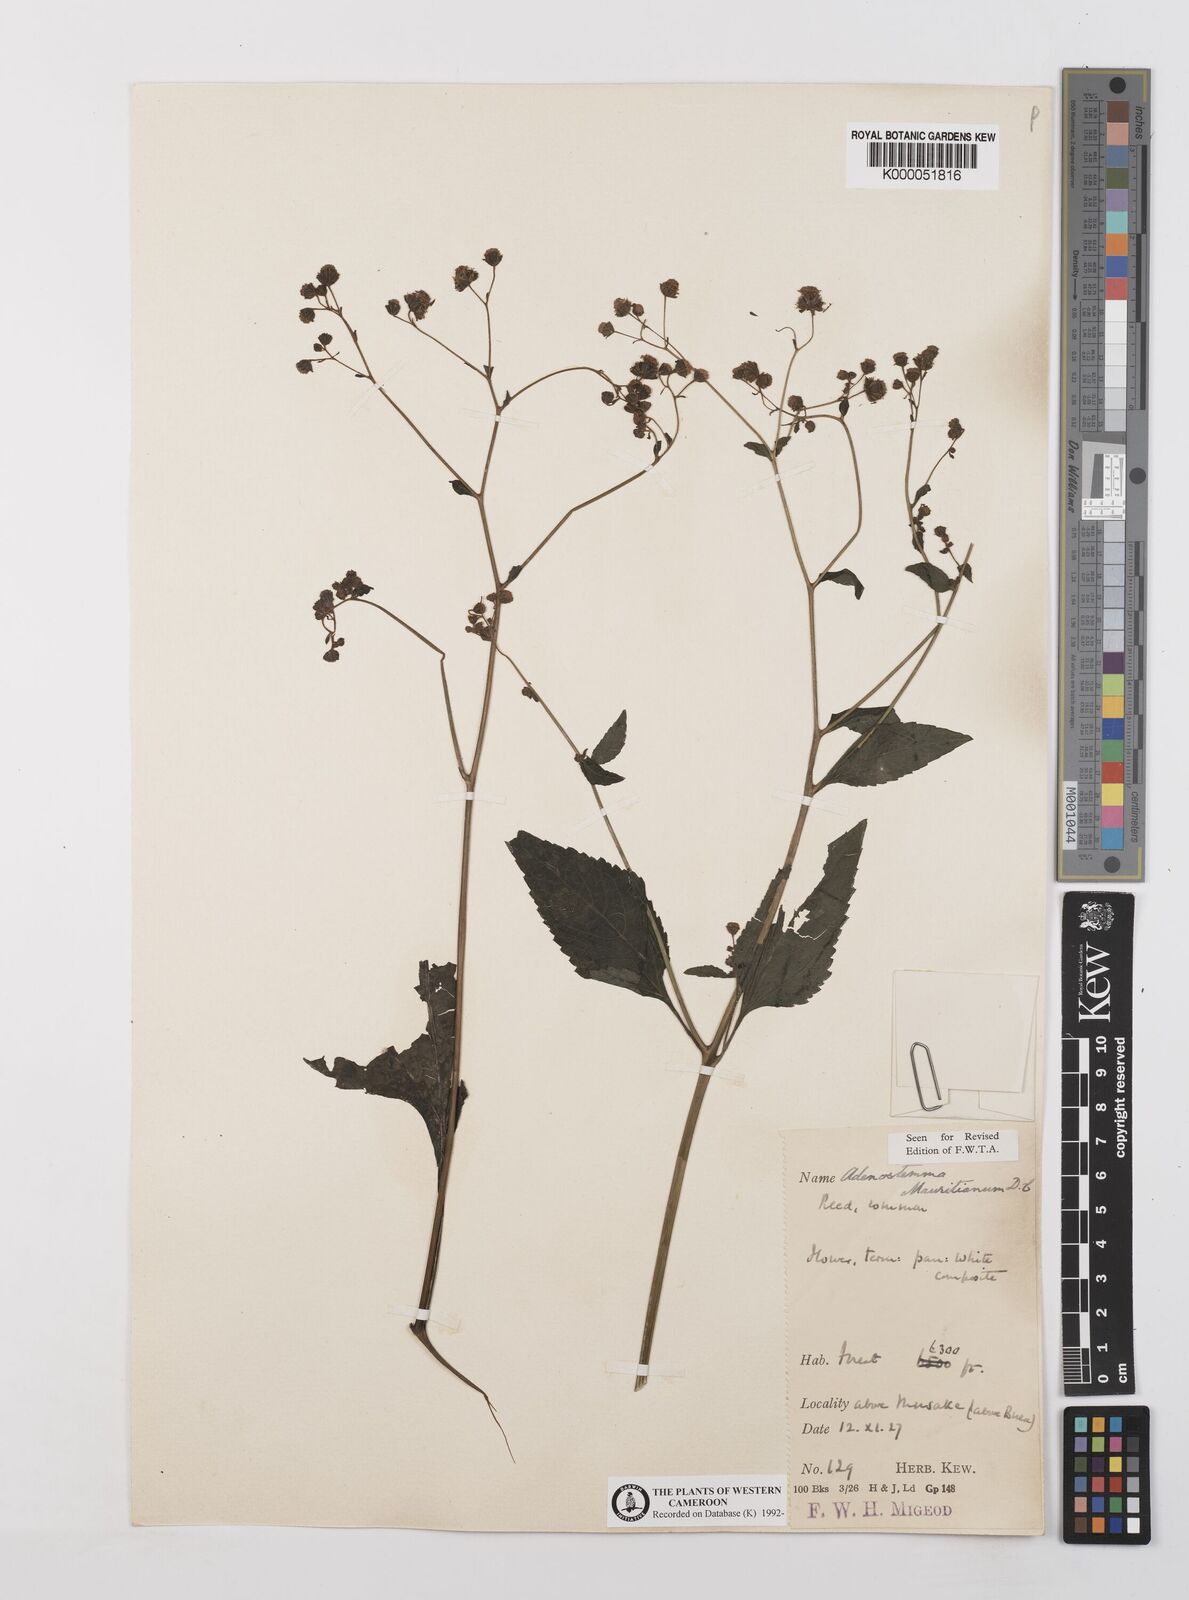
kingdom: Plantae
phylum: Tracheophyta
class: Magnoliopsida
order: Asterales
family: Asteraceae
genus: Adenostemma
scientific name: Adenostemma mauritianum
